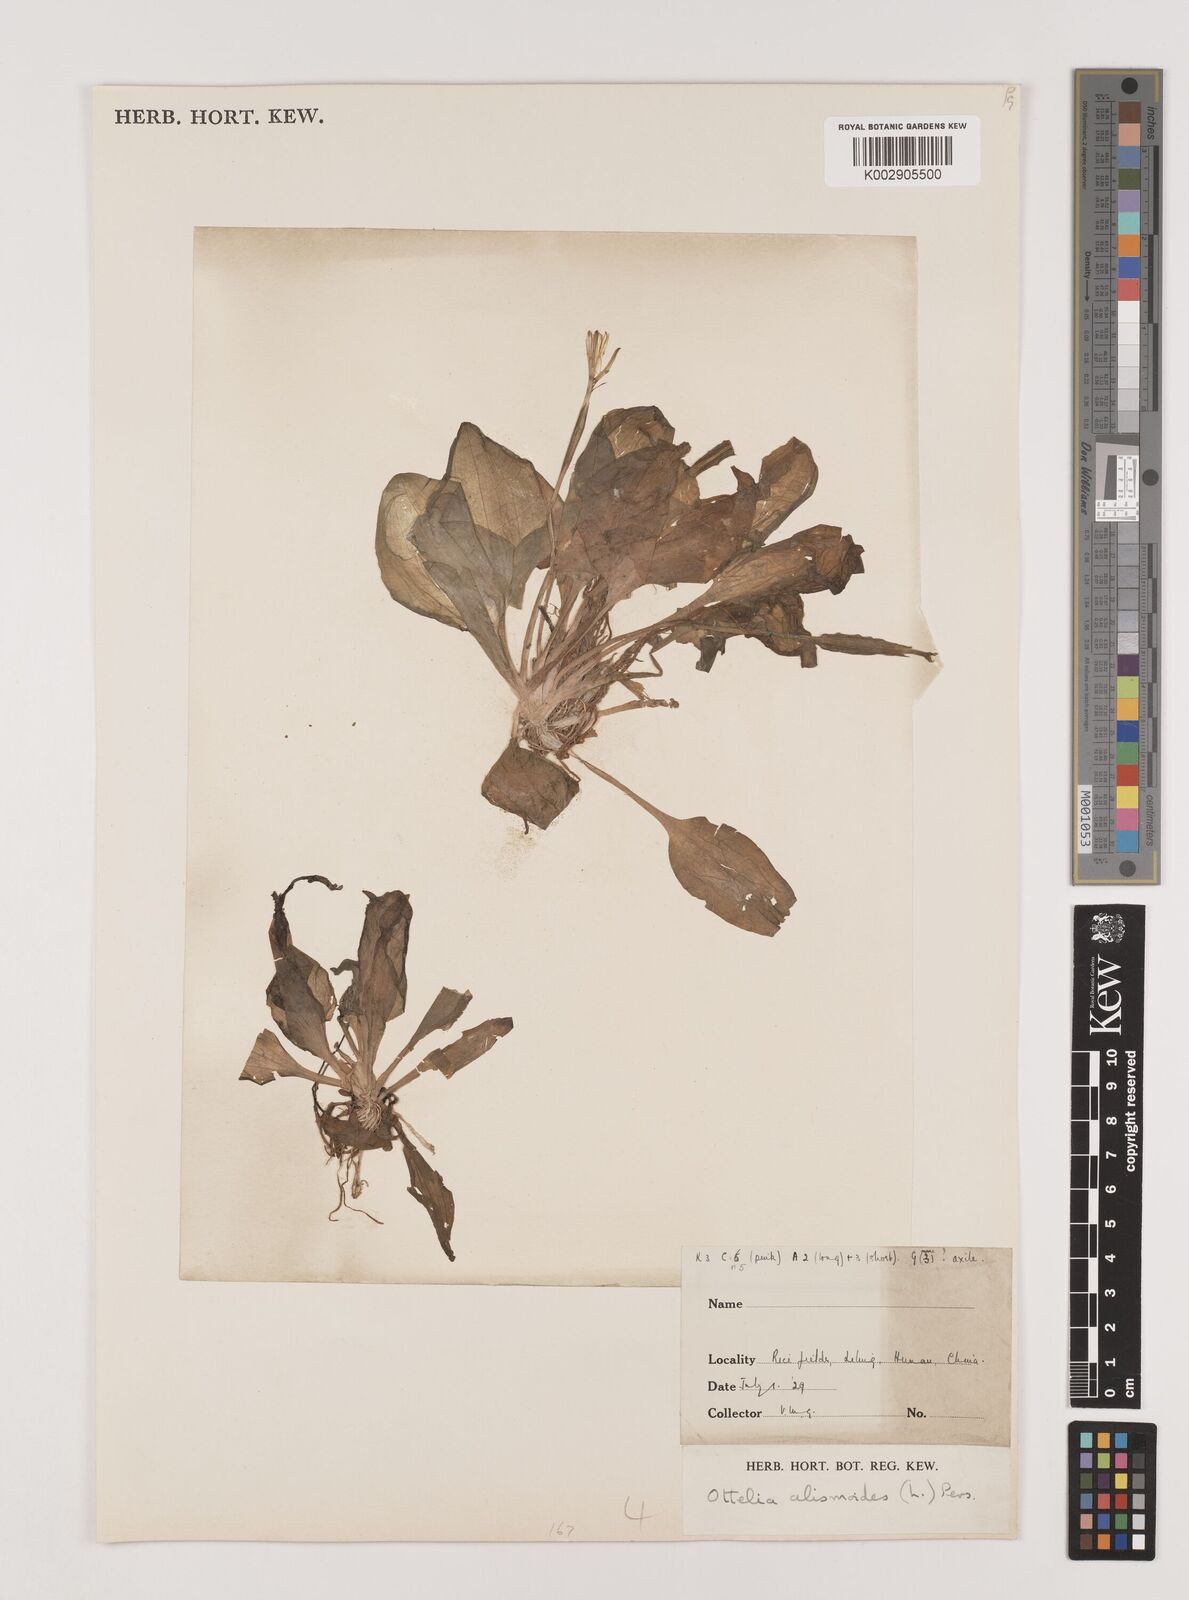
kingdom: Plantae
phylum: Tracheophyta
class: Liliopsida
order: Alismatales
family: Hydrocharitaceae
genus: Ottelia
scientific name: Ottelia alismoides
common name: Duck-lettuce
